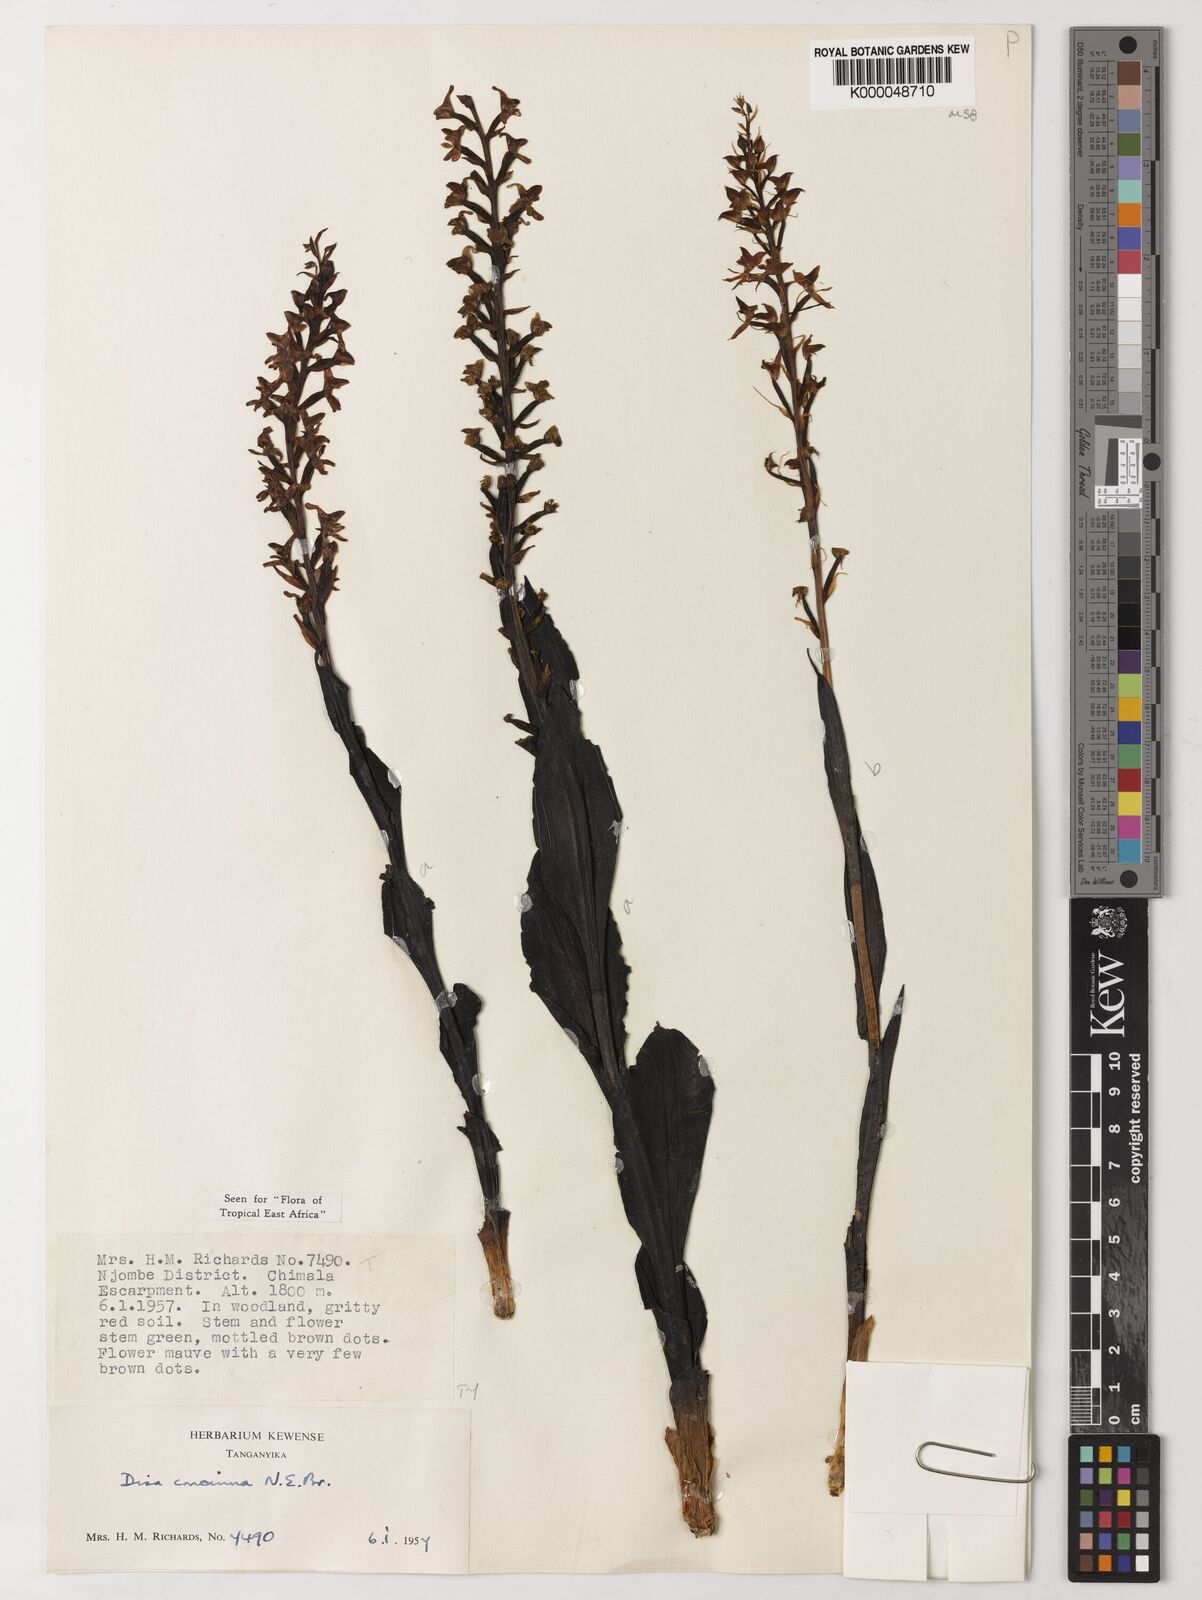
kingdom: Plantae
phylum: Tracheophyta
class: Liliopsida
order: Asparagales
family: Orchidaceae
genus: Disa
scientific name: Disa nyikensis
